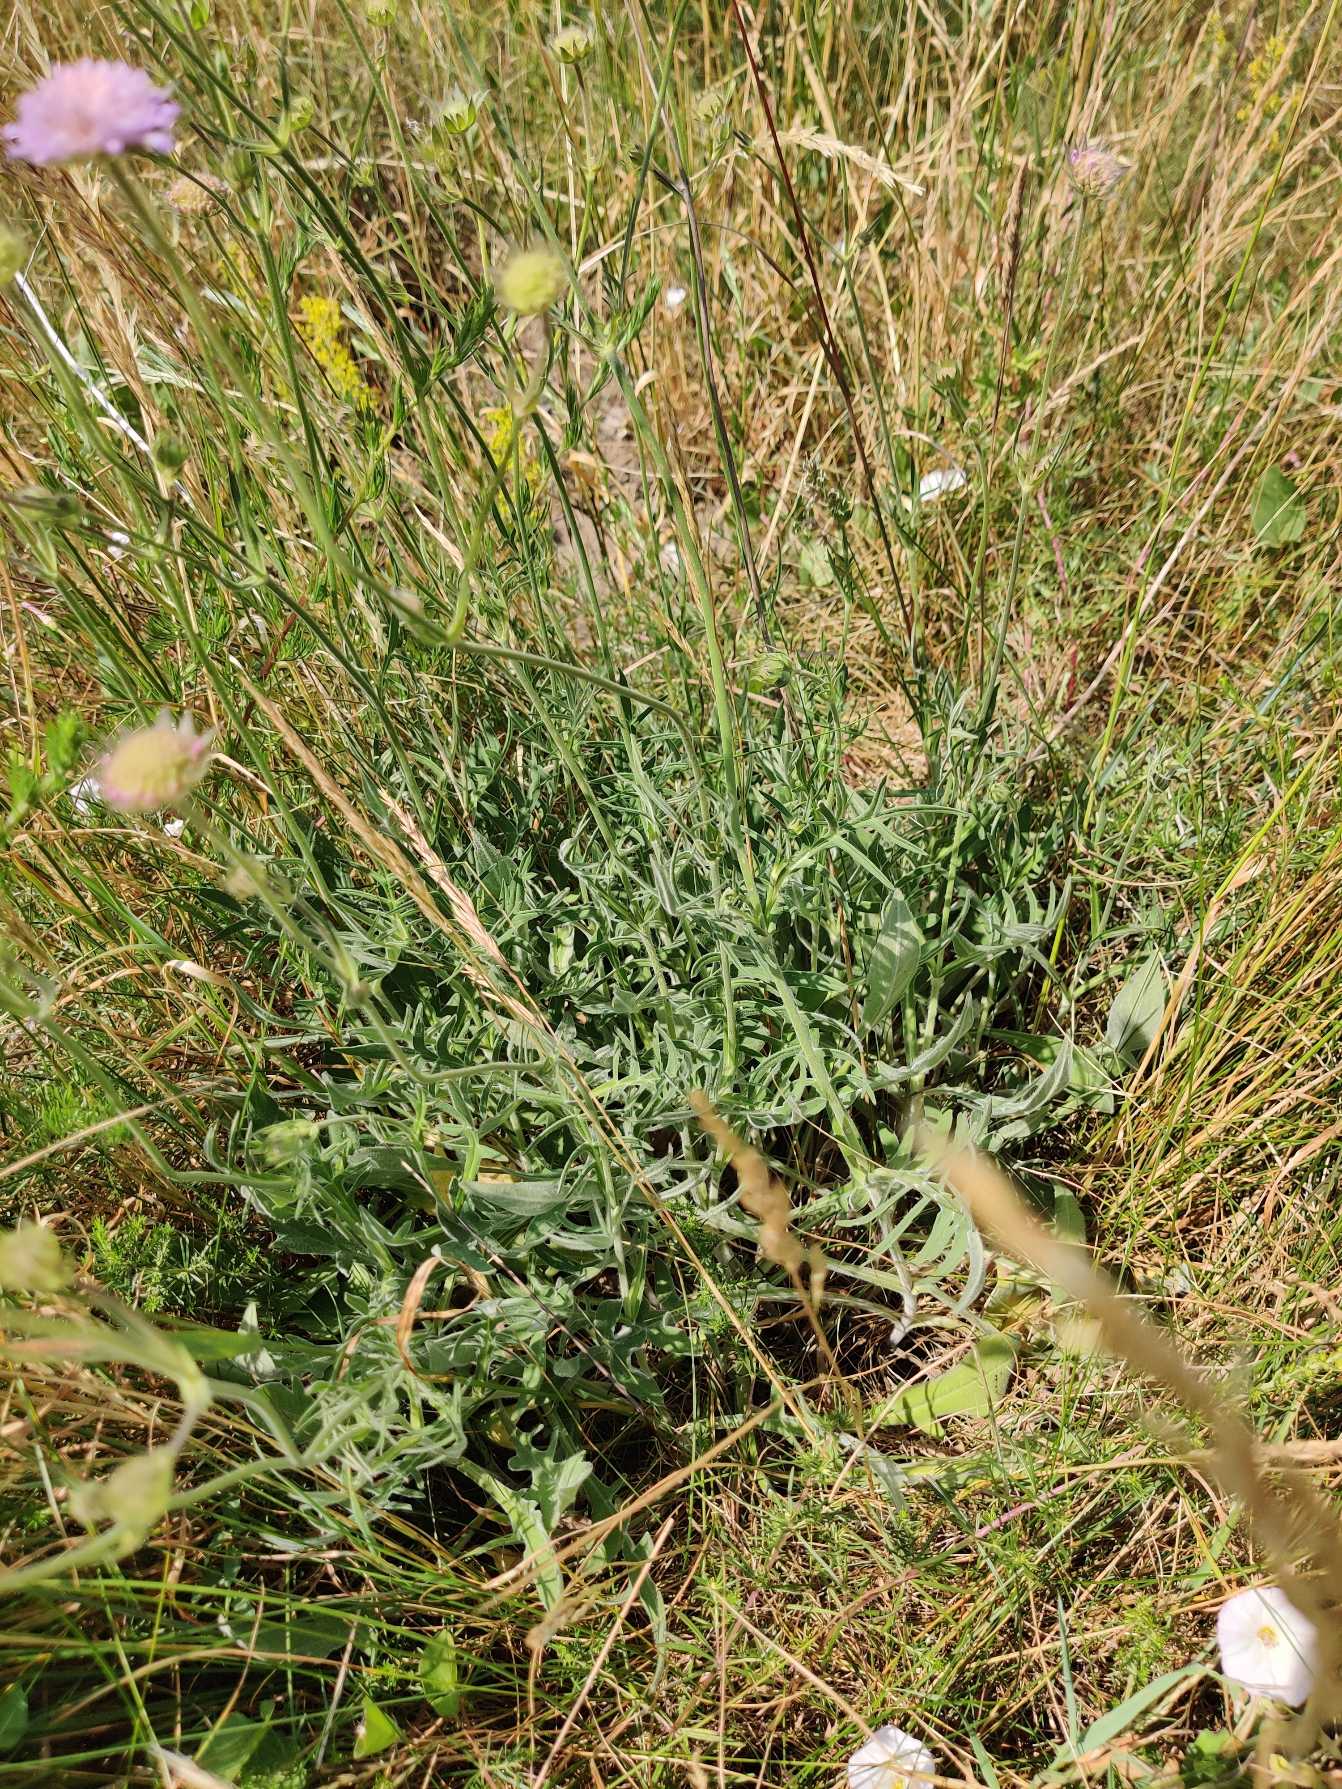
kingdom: Plantae
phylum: Tracheophyta
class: Magnoliopsida
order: Dipsacales
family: Caprifoliaceae
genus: Knautia
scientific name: Knautia arvensis
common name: Blåhat
